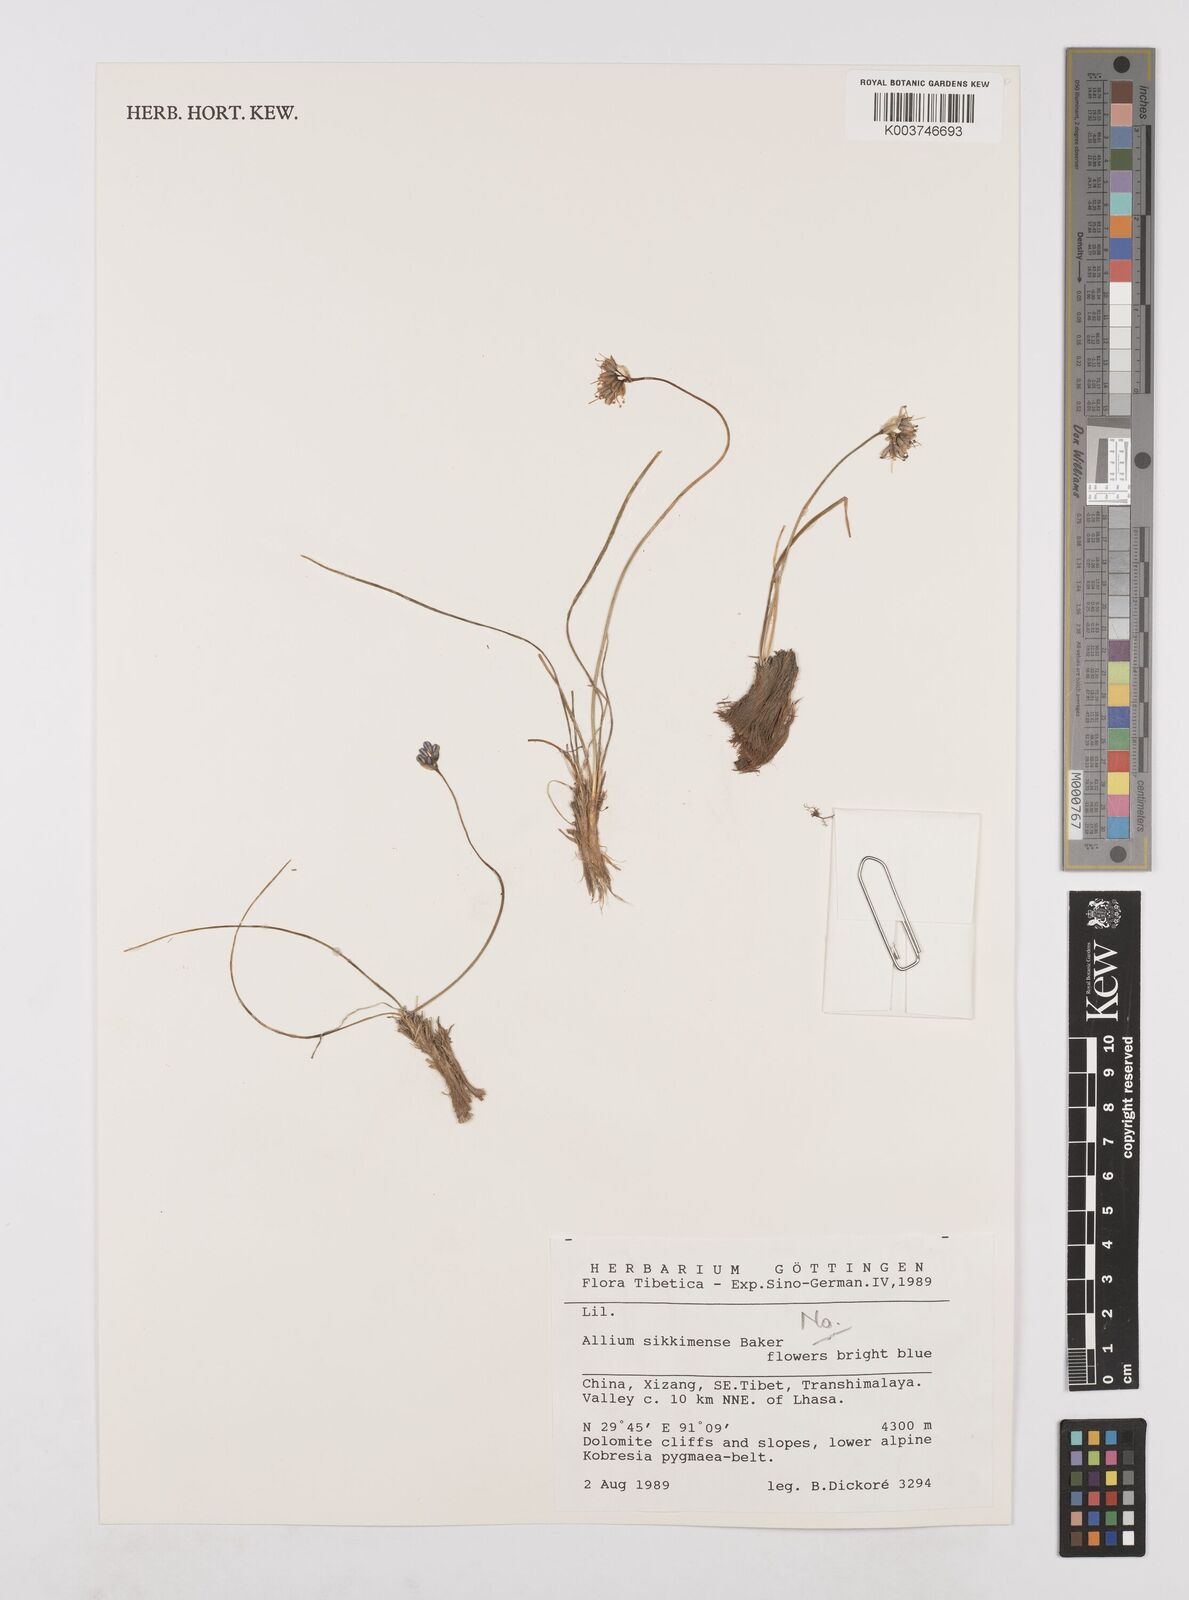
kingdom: Plantae
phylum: Tracheophyta
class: Liliopsida
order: Asparagales
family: Amaryllidaceae
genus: Allium
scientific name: Allium polyrhizum
